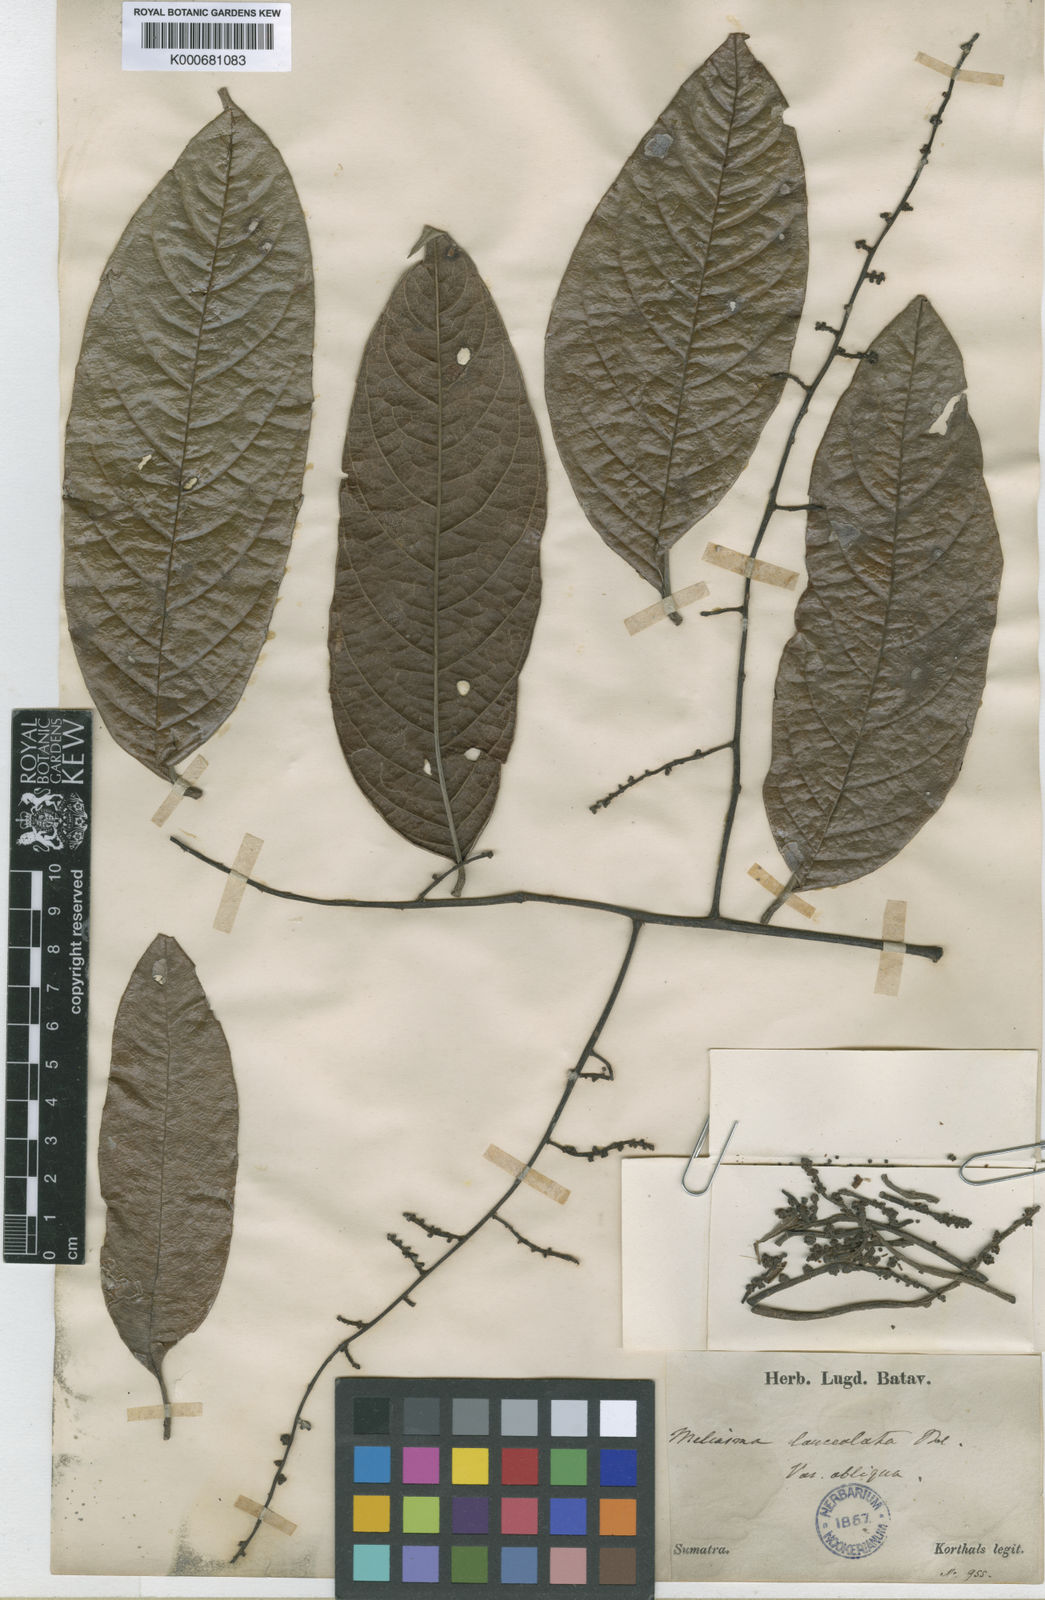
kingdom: Plantae
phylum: Tracheophyta
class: Magnoliopsida
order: Proteales
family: Sabiaceae
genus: Meliosma
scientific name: Meliosma lanceolata
